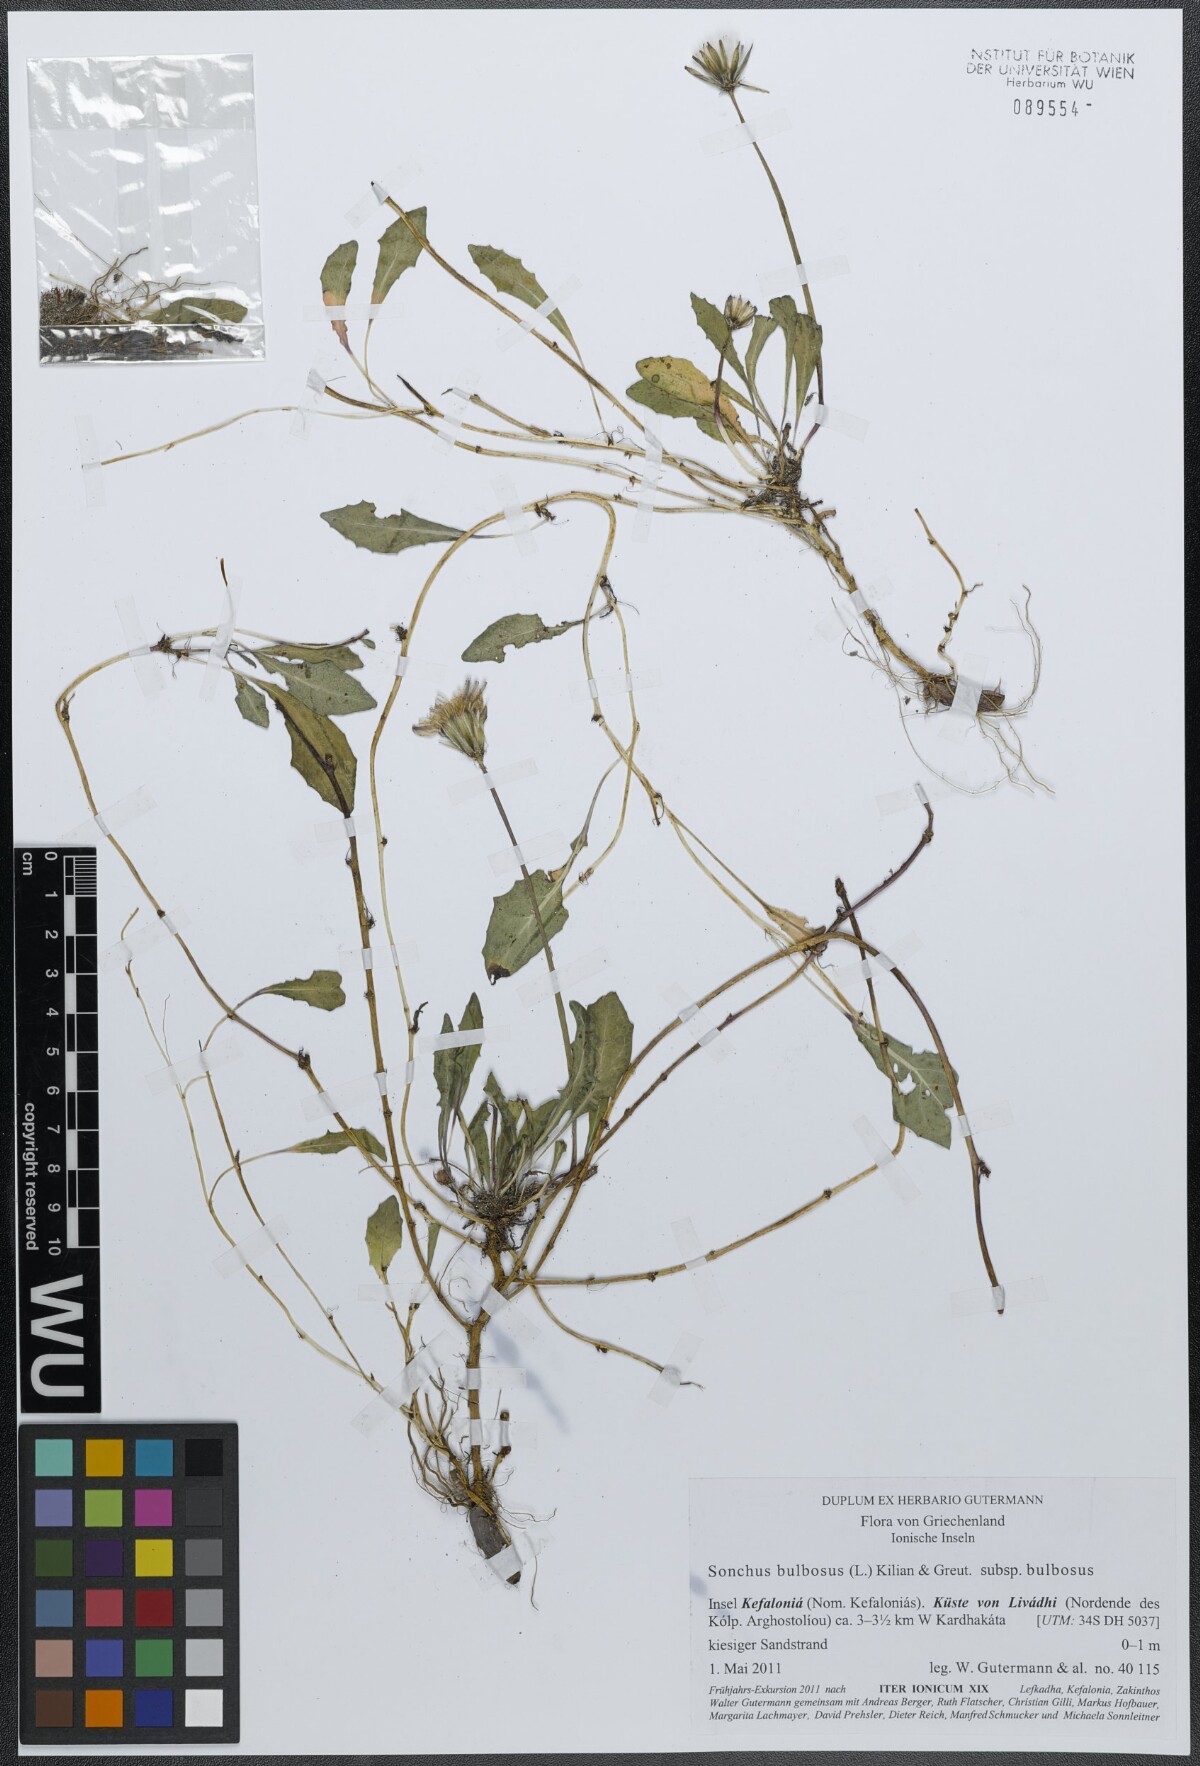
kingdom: Plantae
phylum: Tracheophyta
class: Magnoliopsida
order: Asterales
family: Asteraceae
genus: Aetheorhiza
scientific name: Aetheorhiza bulbosa
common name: Tuberous hawk's-beard
